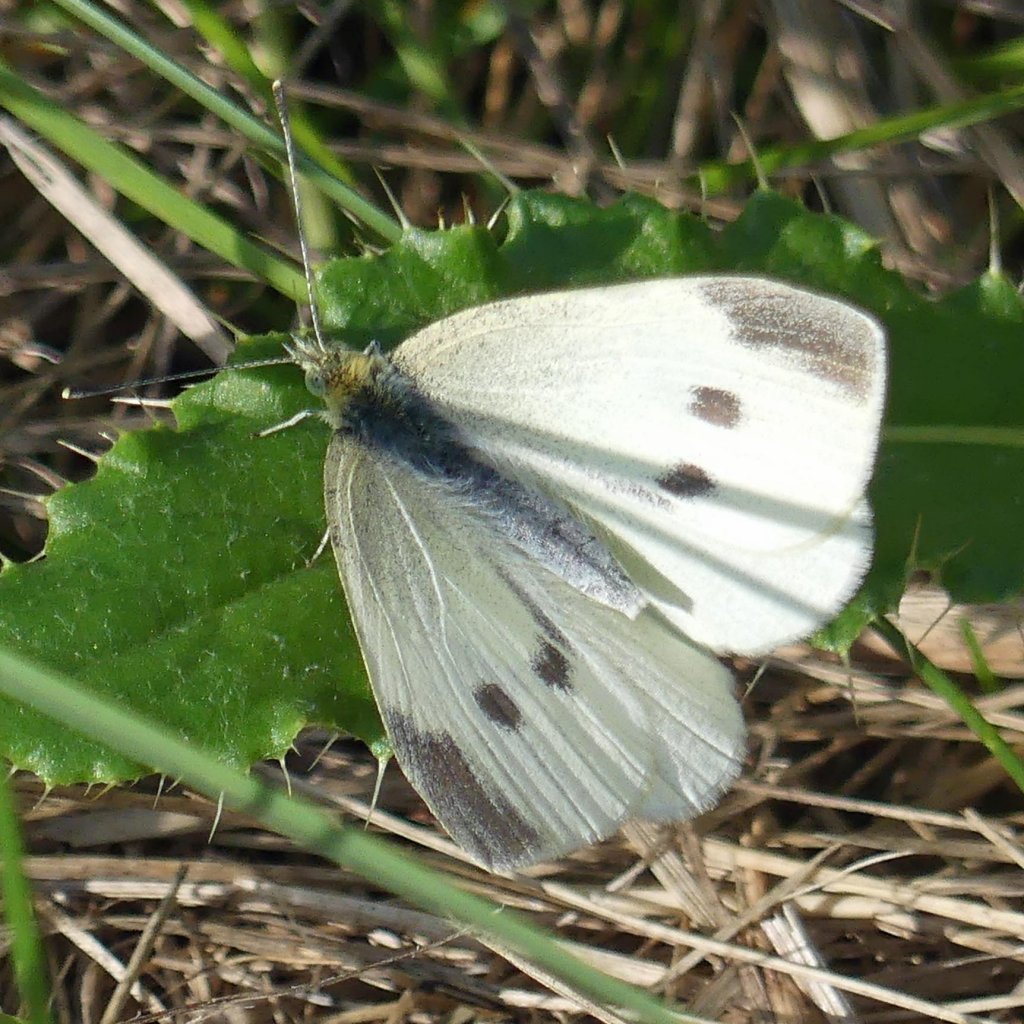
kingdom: Animalia
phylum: Arthropoda
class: Insecta
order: Lepidoptera
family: Pieridae
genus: Pieris
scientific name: Pieris rapae
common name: Cabbage White
